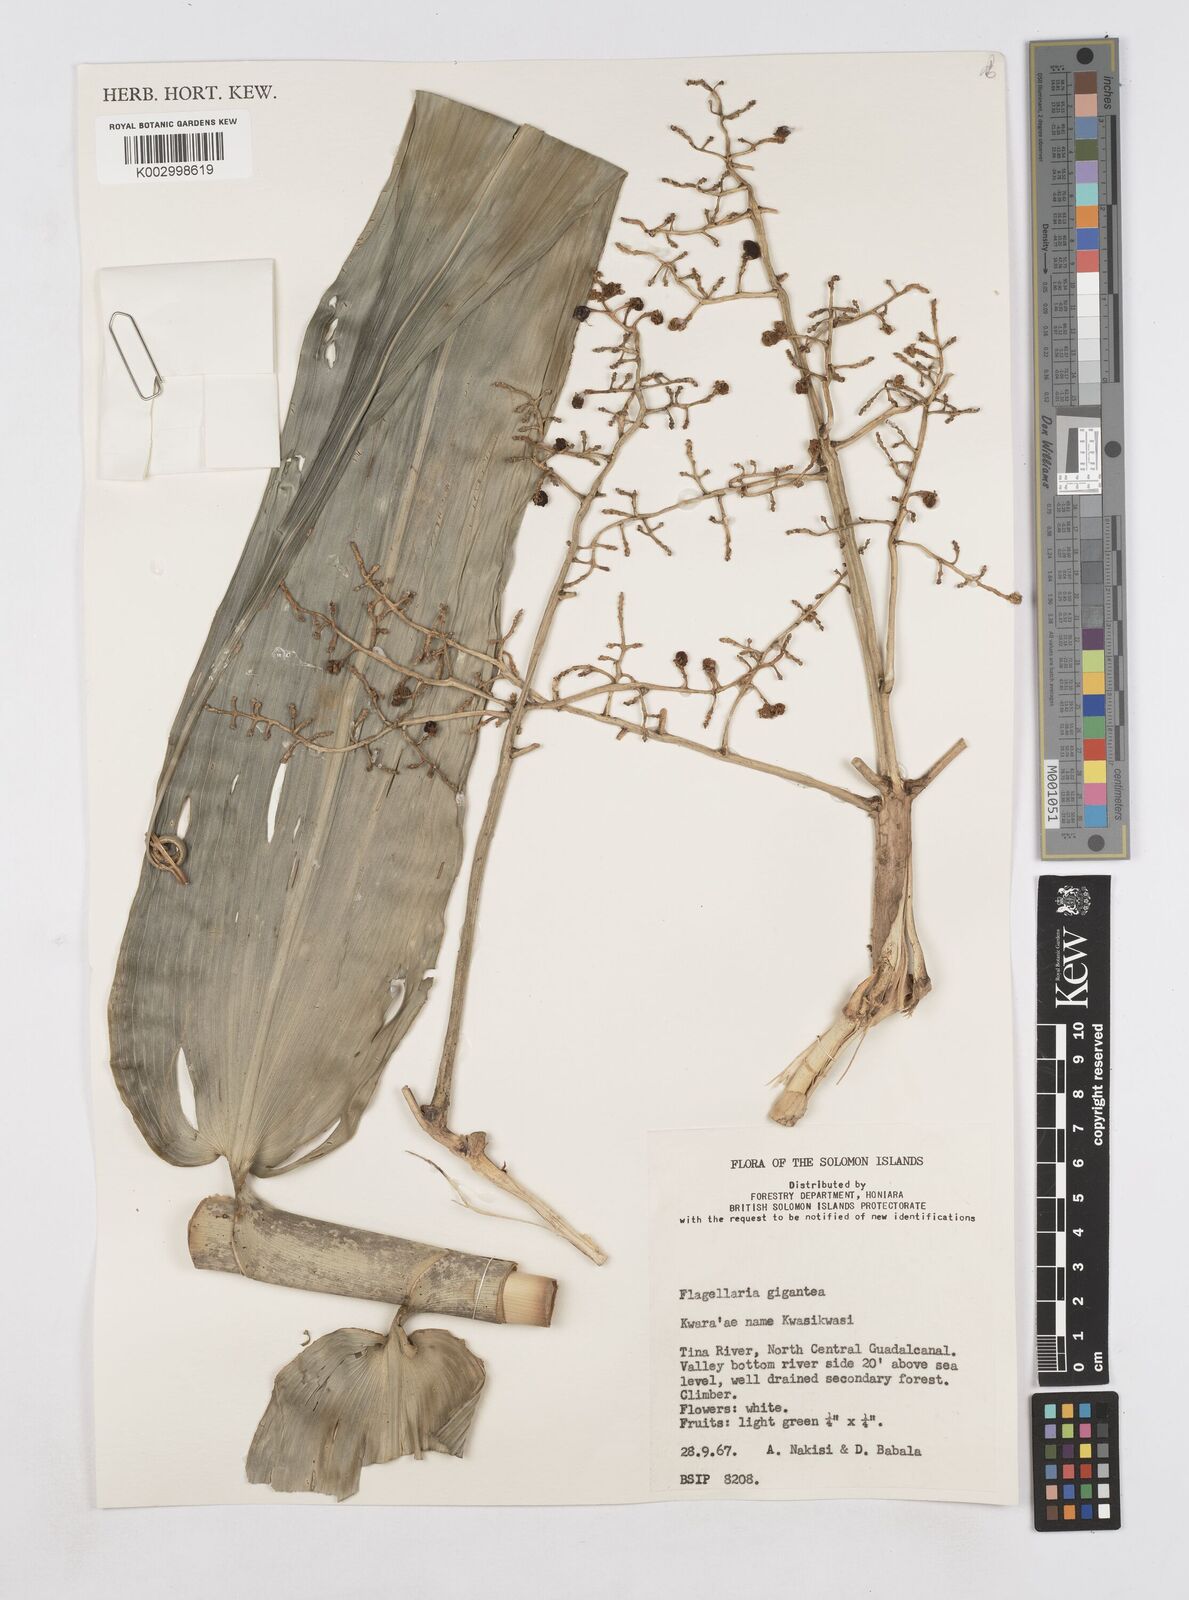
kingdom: Plantae
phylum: Tracheophyta
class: Liliopsida
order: Poales
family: Flagellariaceae
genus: Flagellaria
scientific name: Flagellaria gigantea
